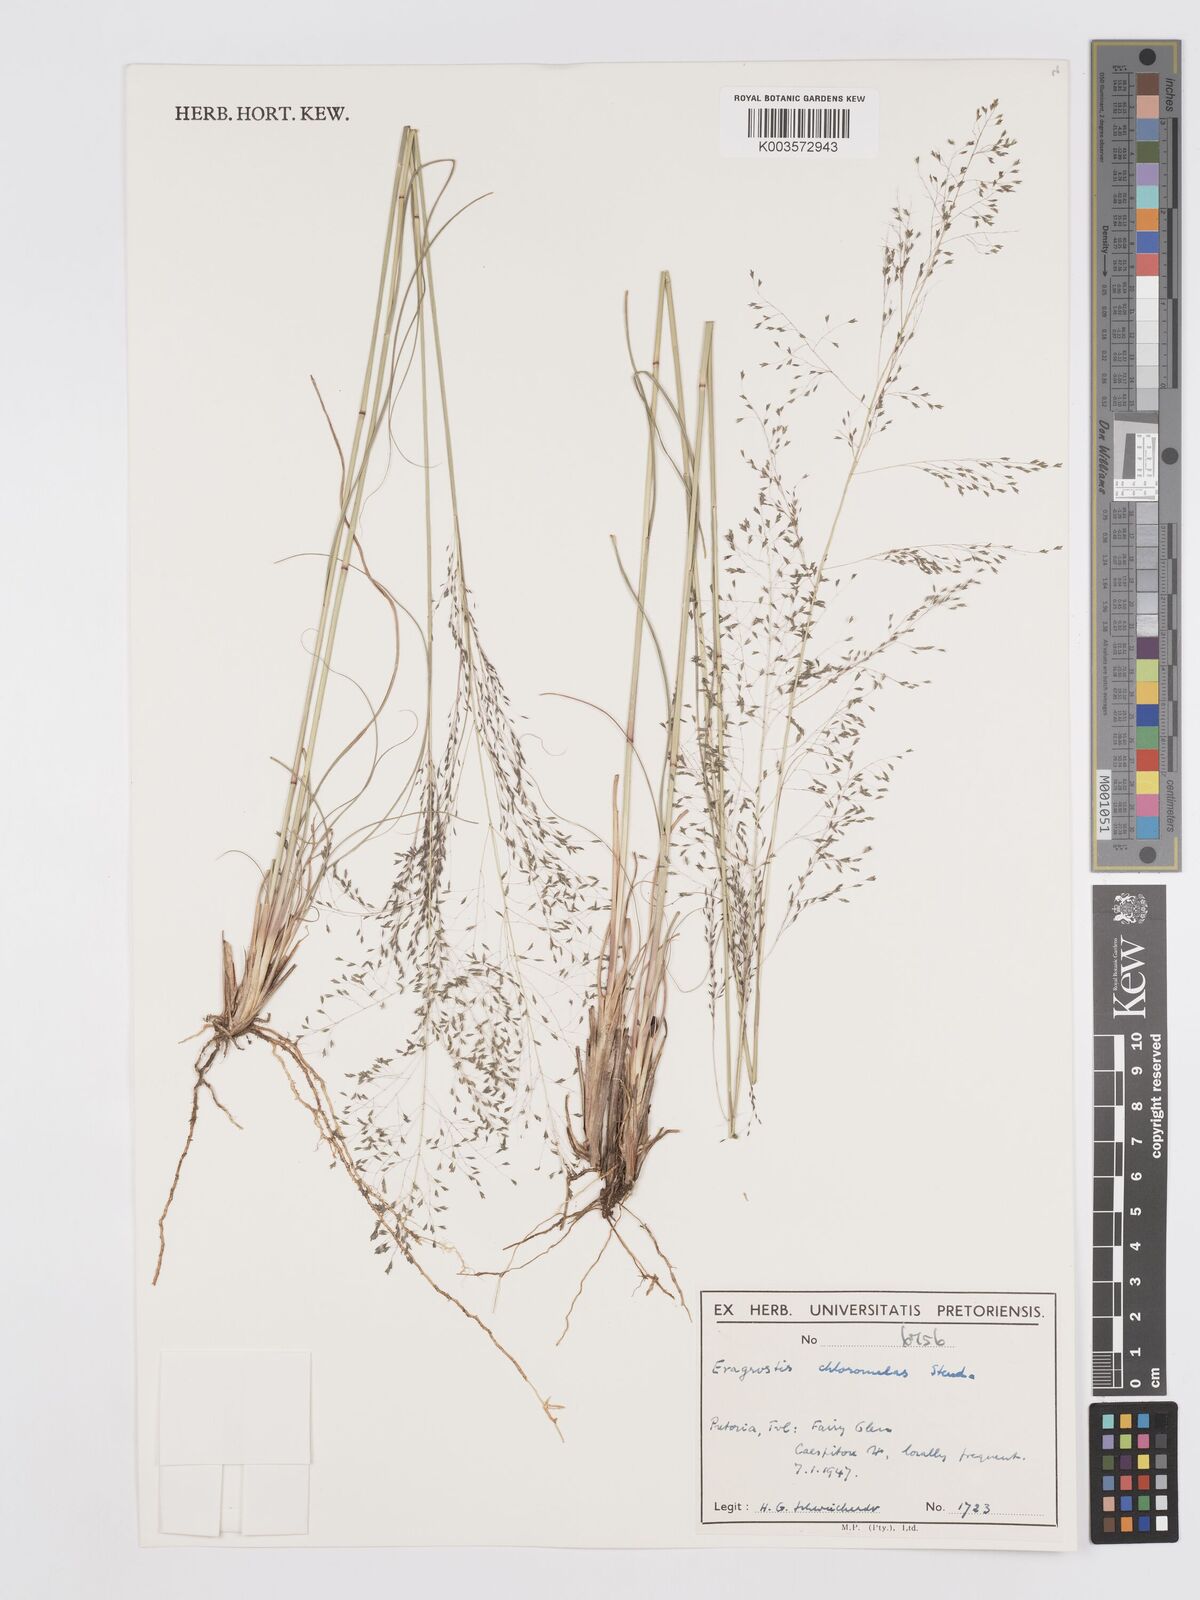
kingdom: Plantae
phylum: Tracheophyta
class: Liliopsida
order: Poales
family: Poaceae
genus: Eragrostis
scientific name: Eragrostis curvula
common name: African love-grass
